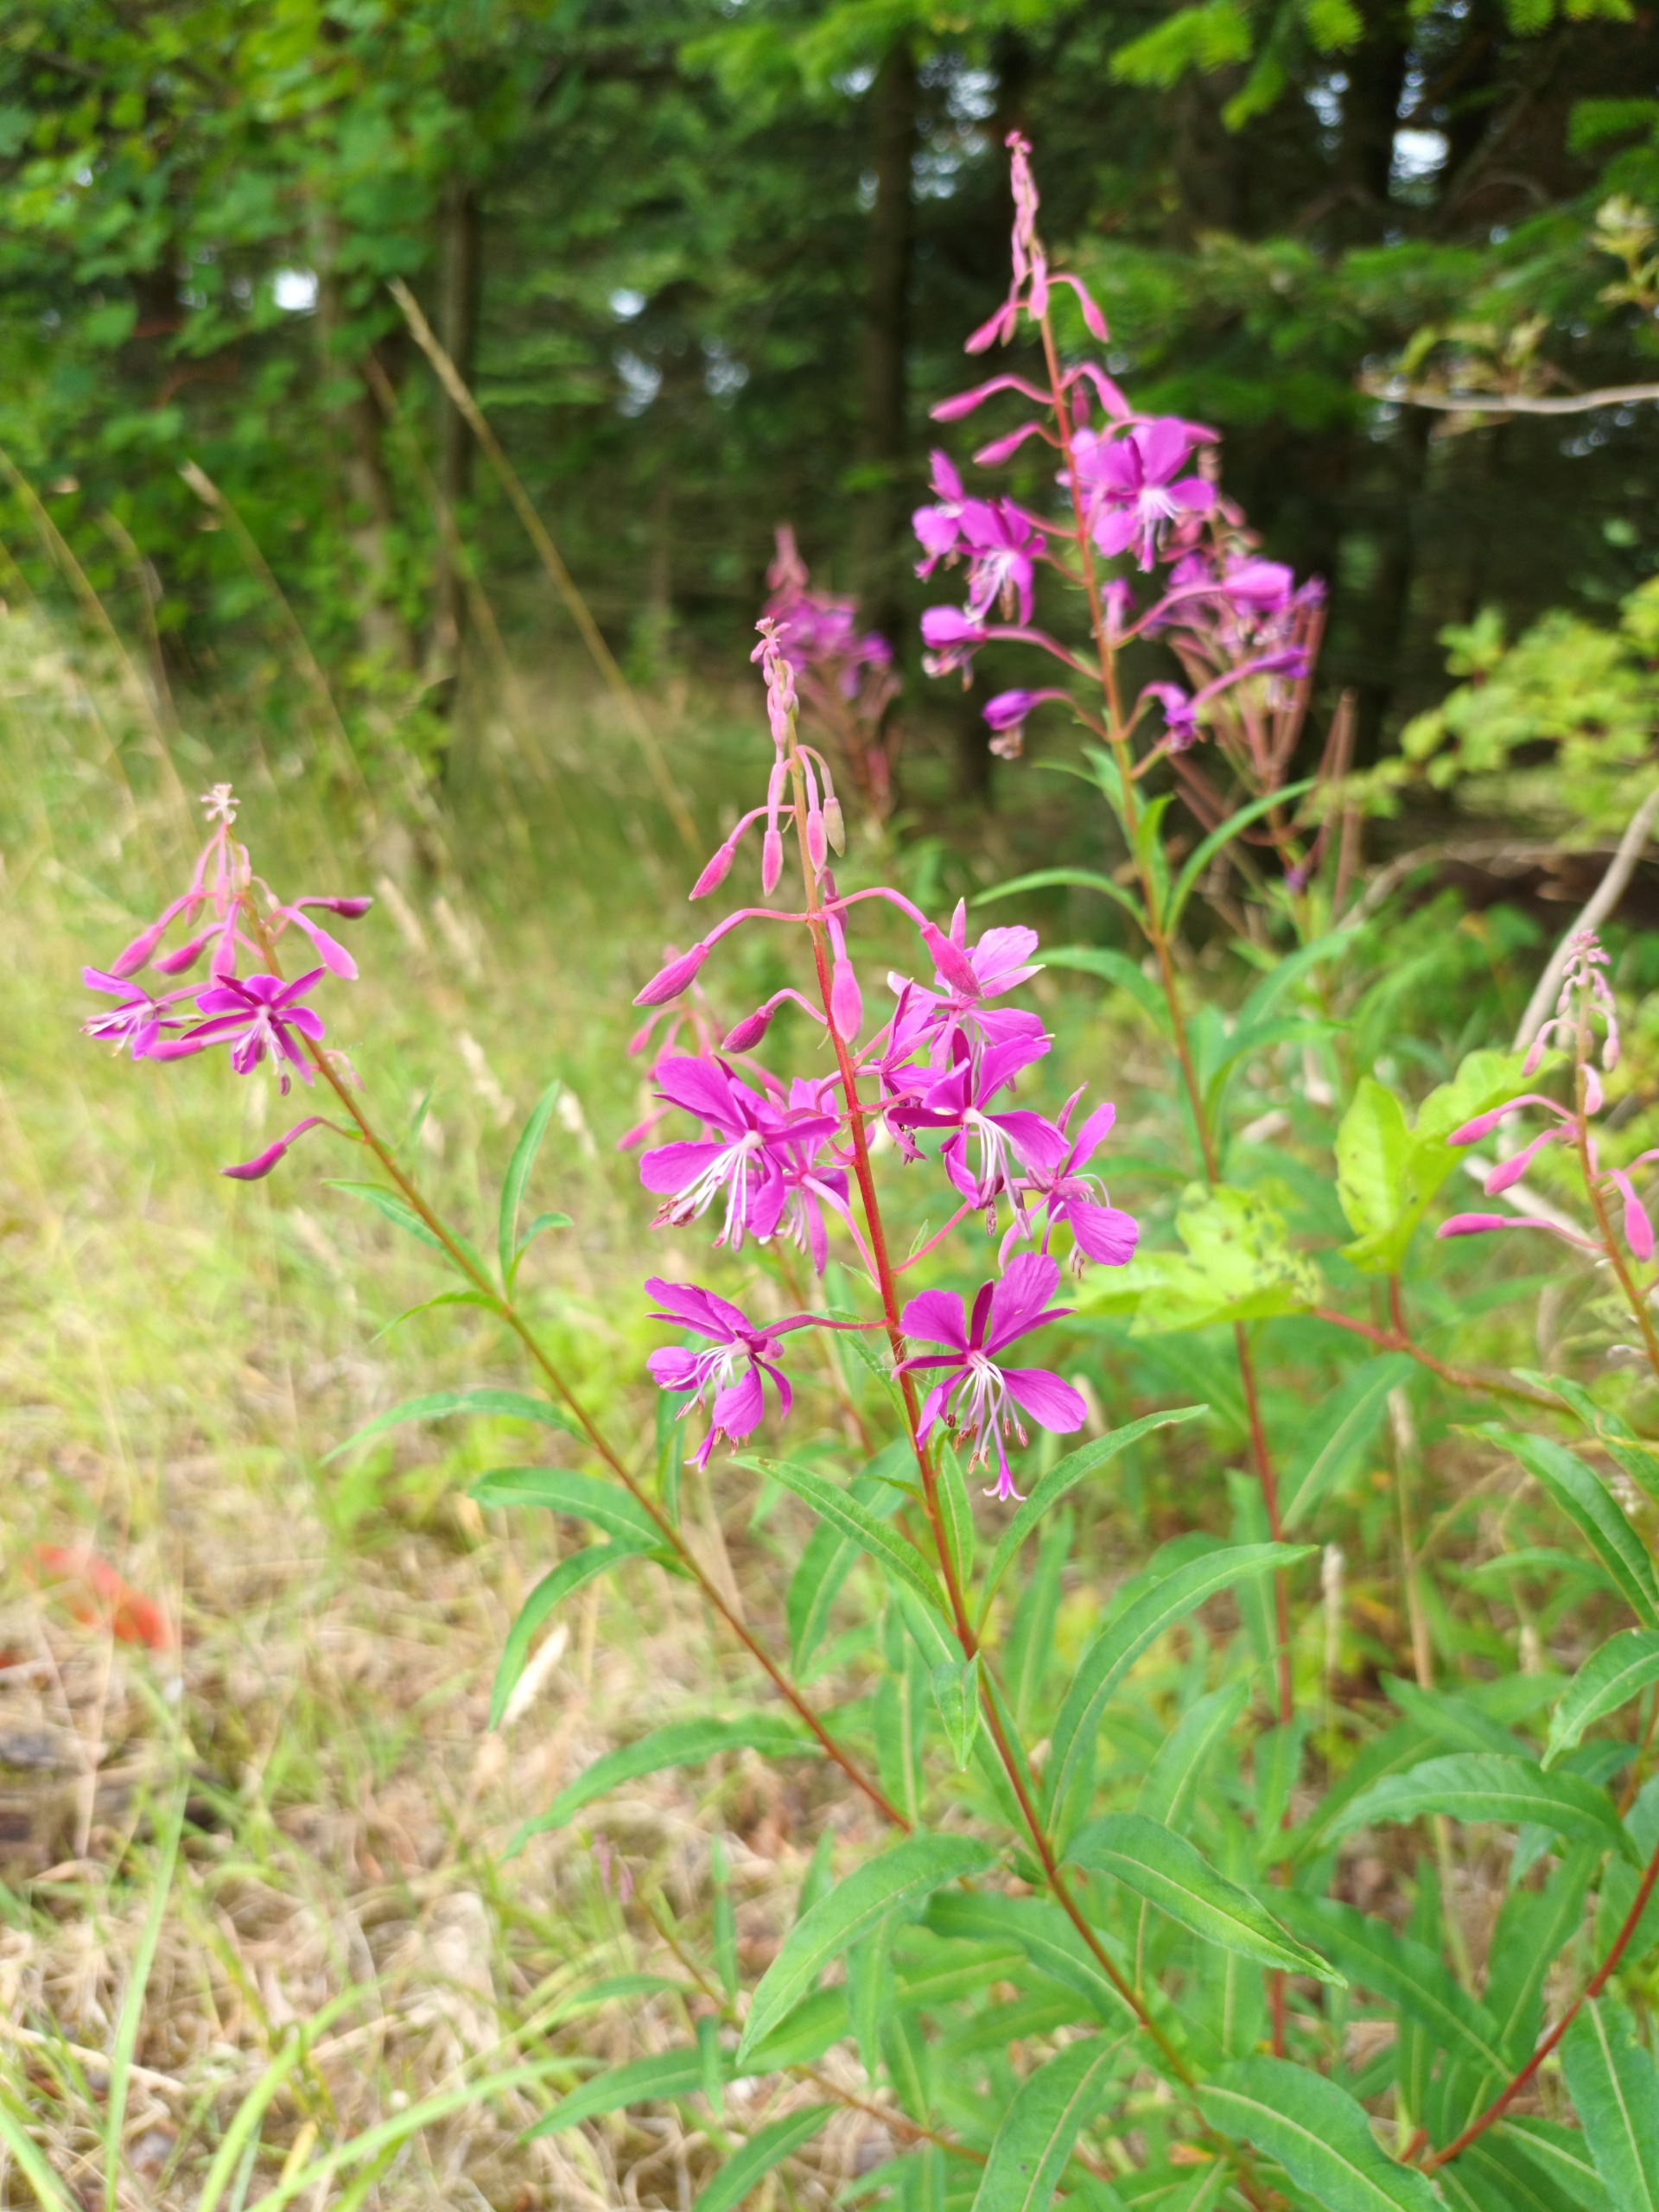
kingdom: Plantae
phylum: Tracheophyta
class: Magnoliopsida
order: Myrtales
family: Onagraceae
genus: Chamaenerion
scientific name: Chamaenerion angustifolium
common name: Gederams
